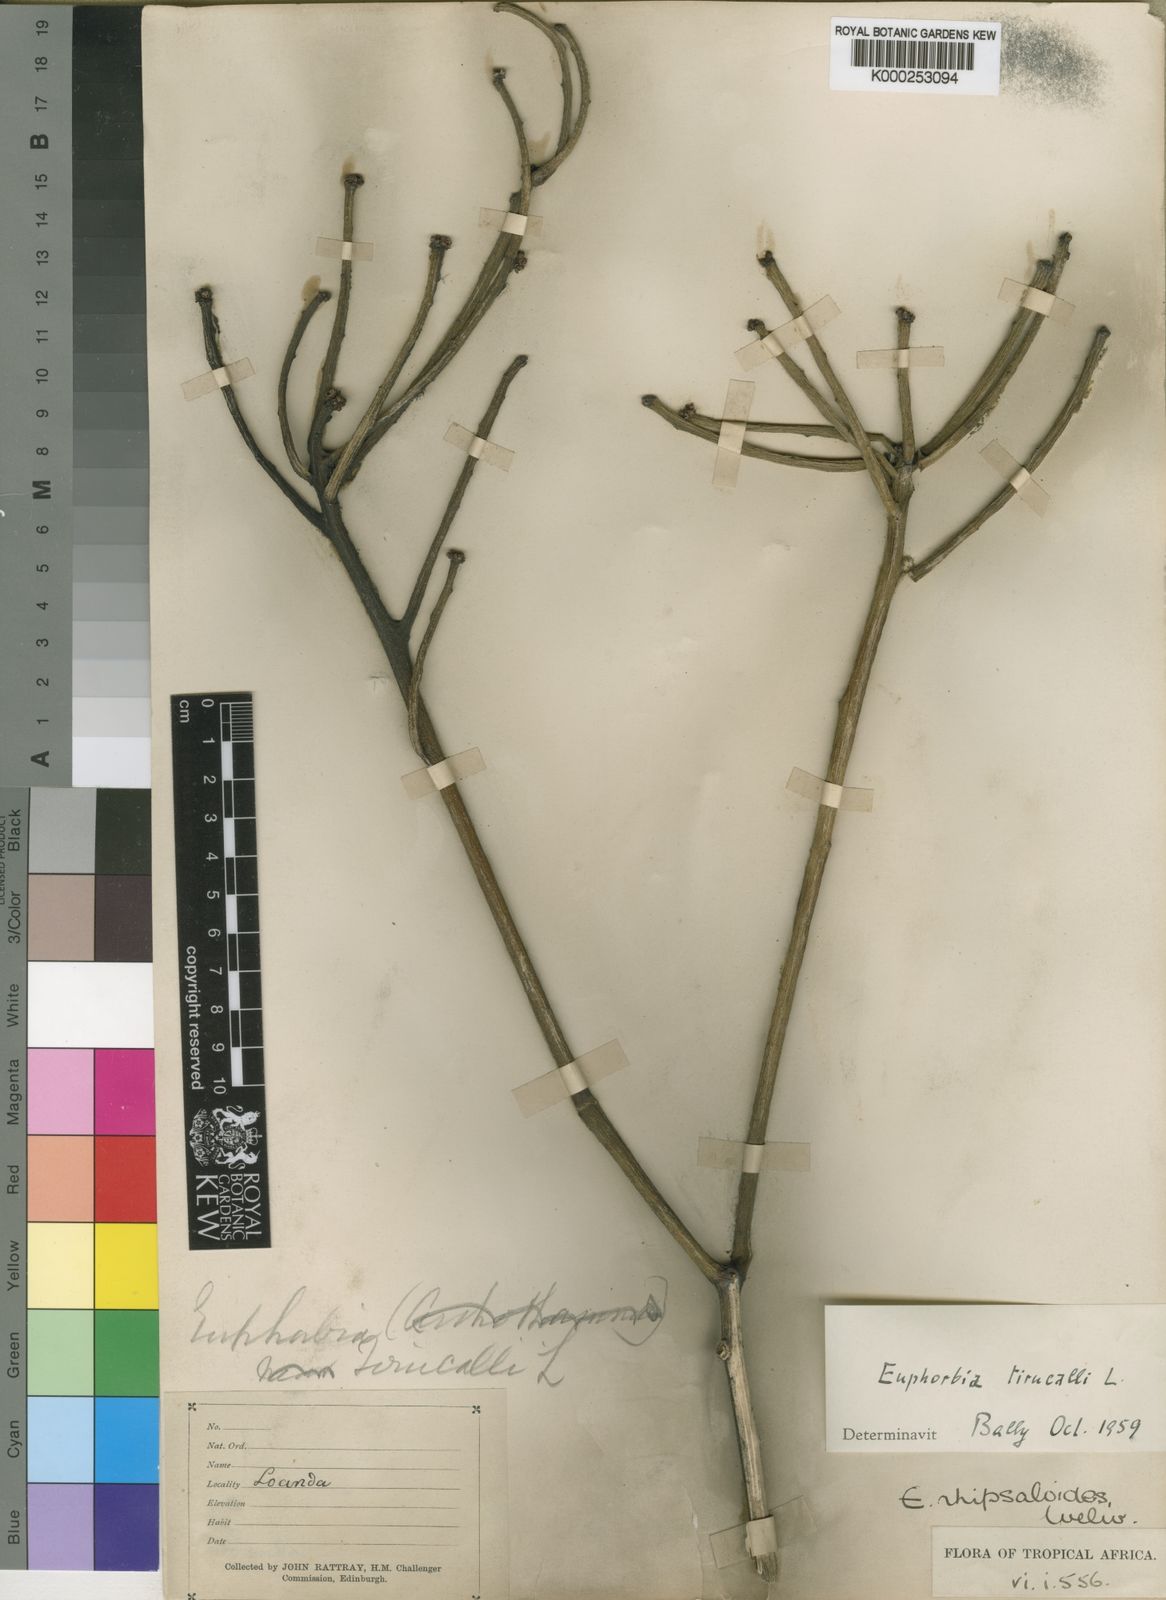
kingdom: Plantae
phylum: Tracheophyta
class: Magnoliopsida
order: Malpighiales
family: Euphorbiaceae
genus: Euphorbia
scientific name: Euphorbia tirucalli
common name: Indiantree spurge
